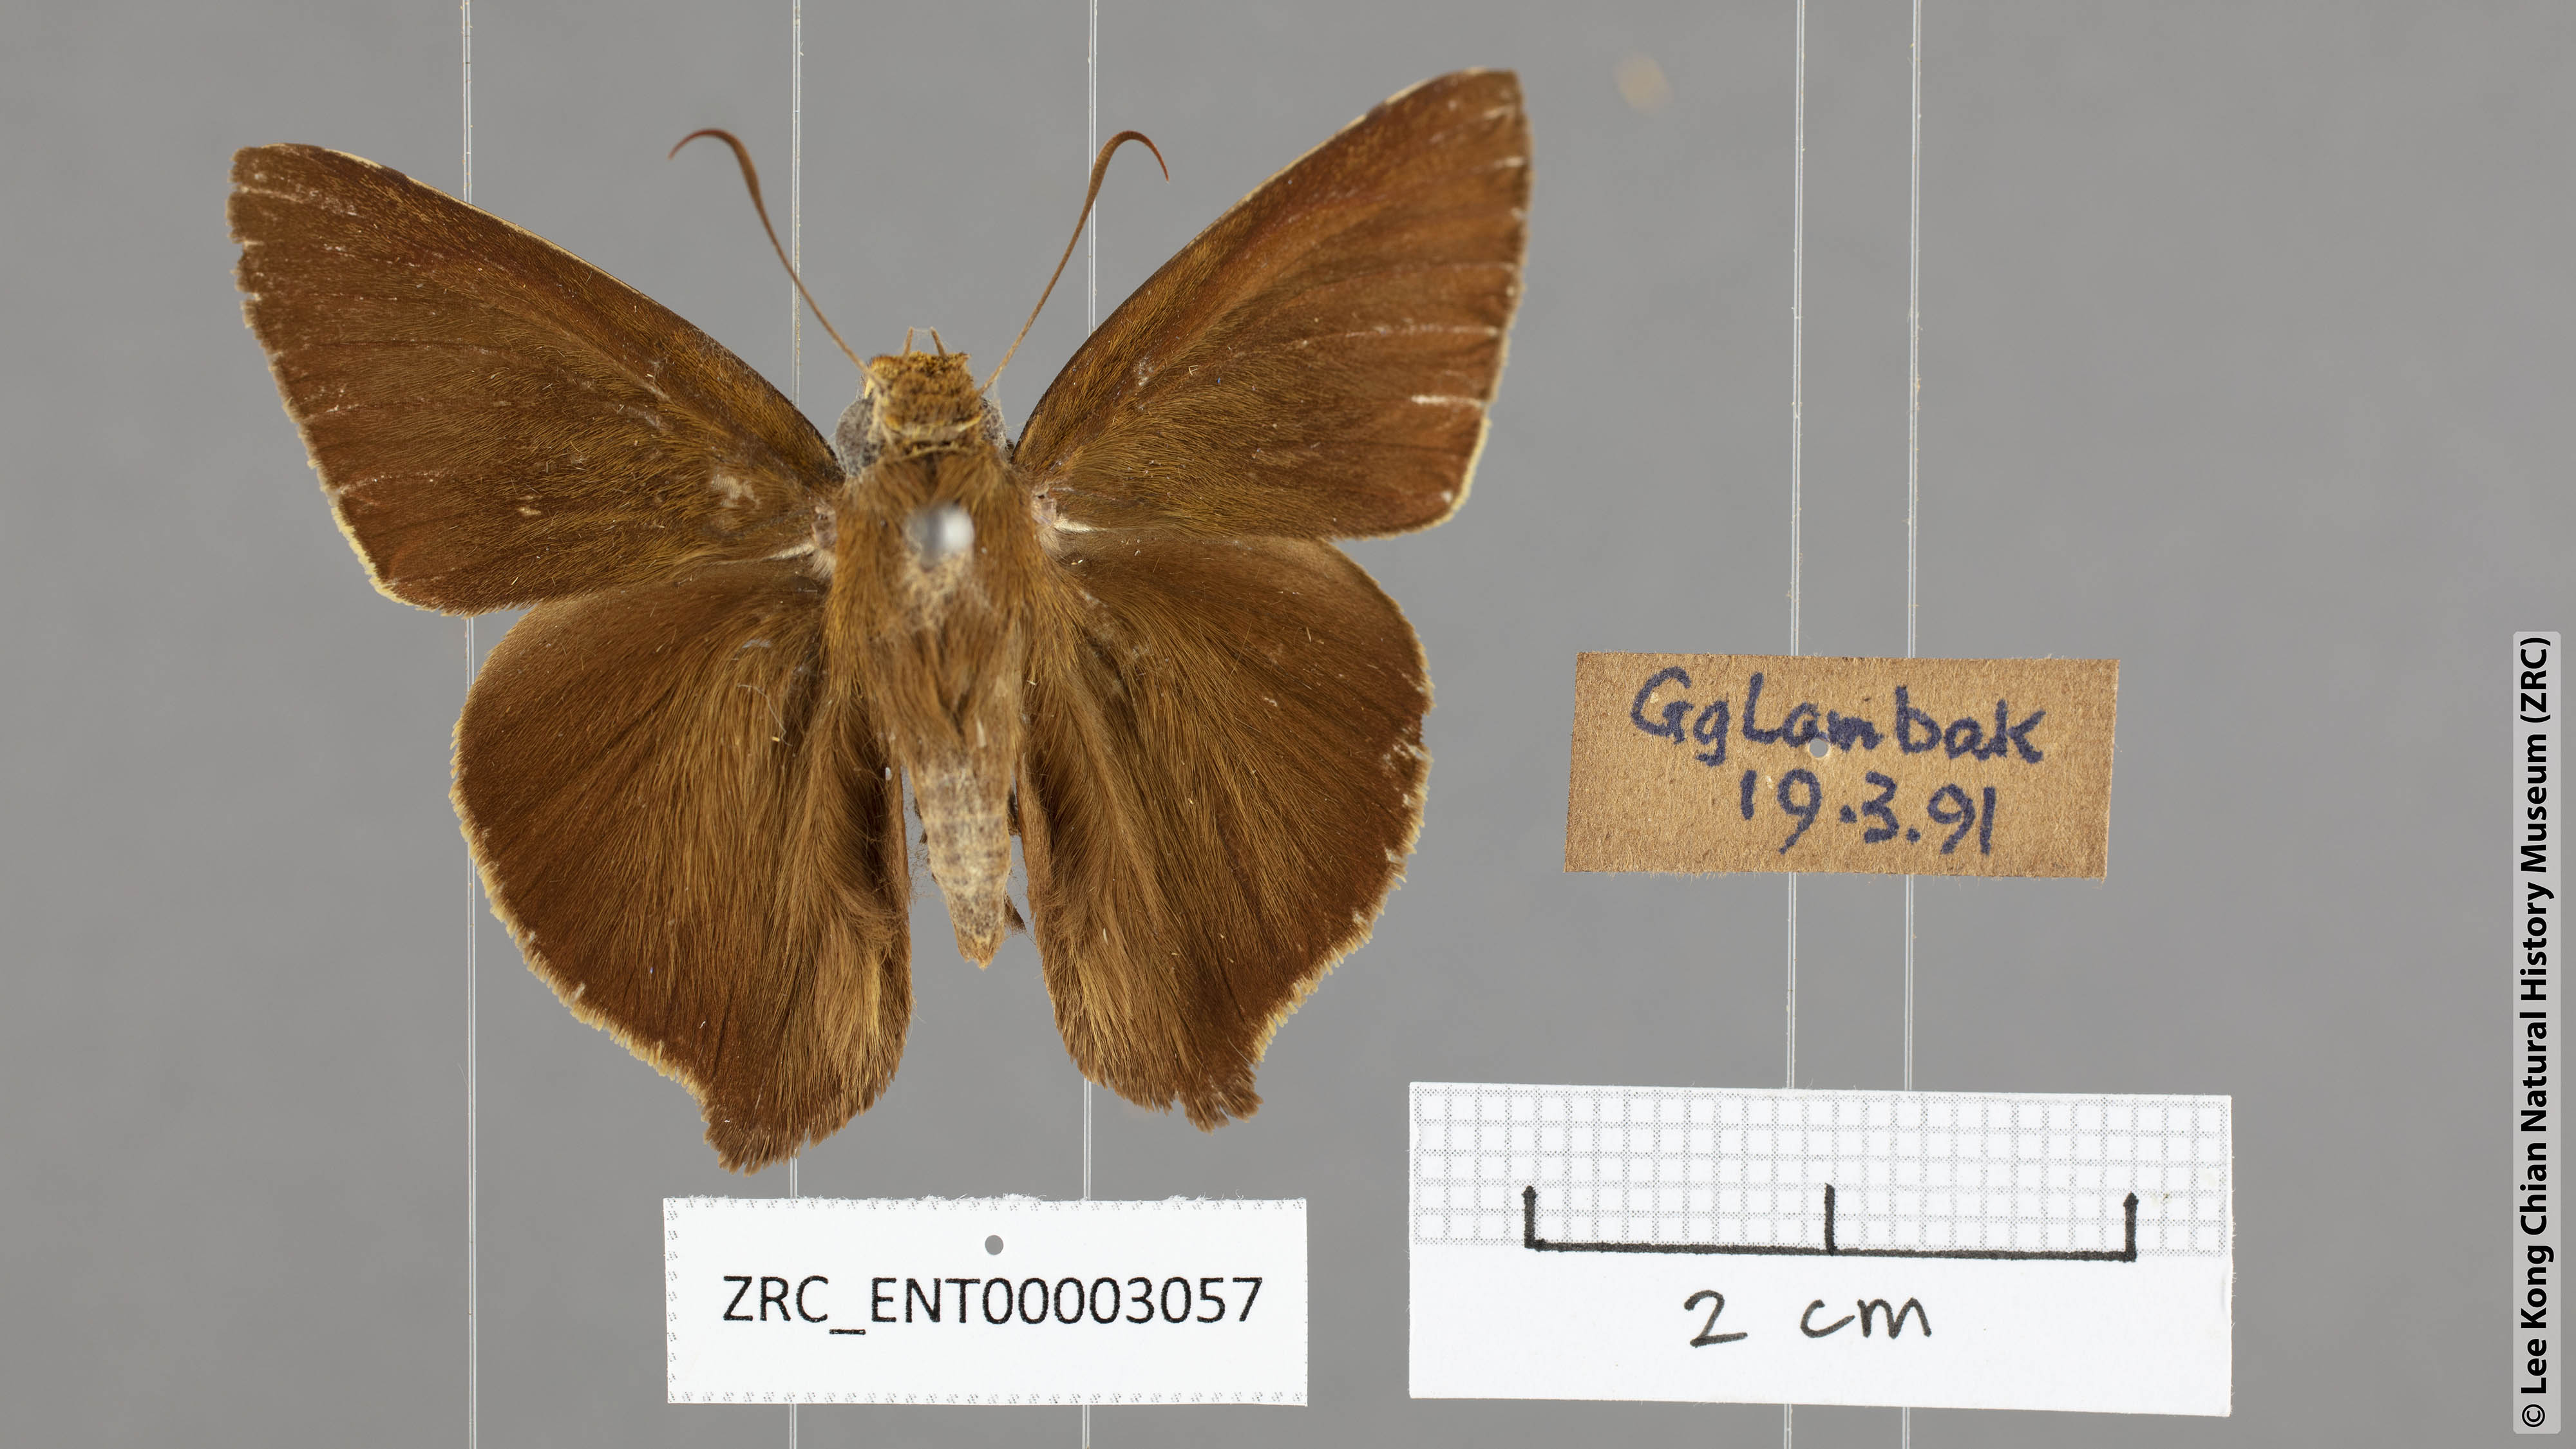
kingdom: Animalia
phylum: Arthropoda
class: Insecta
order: Lepidoptera
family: Hesperiidae
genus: Hasora
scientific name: Hasora badra
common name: Common awl
